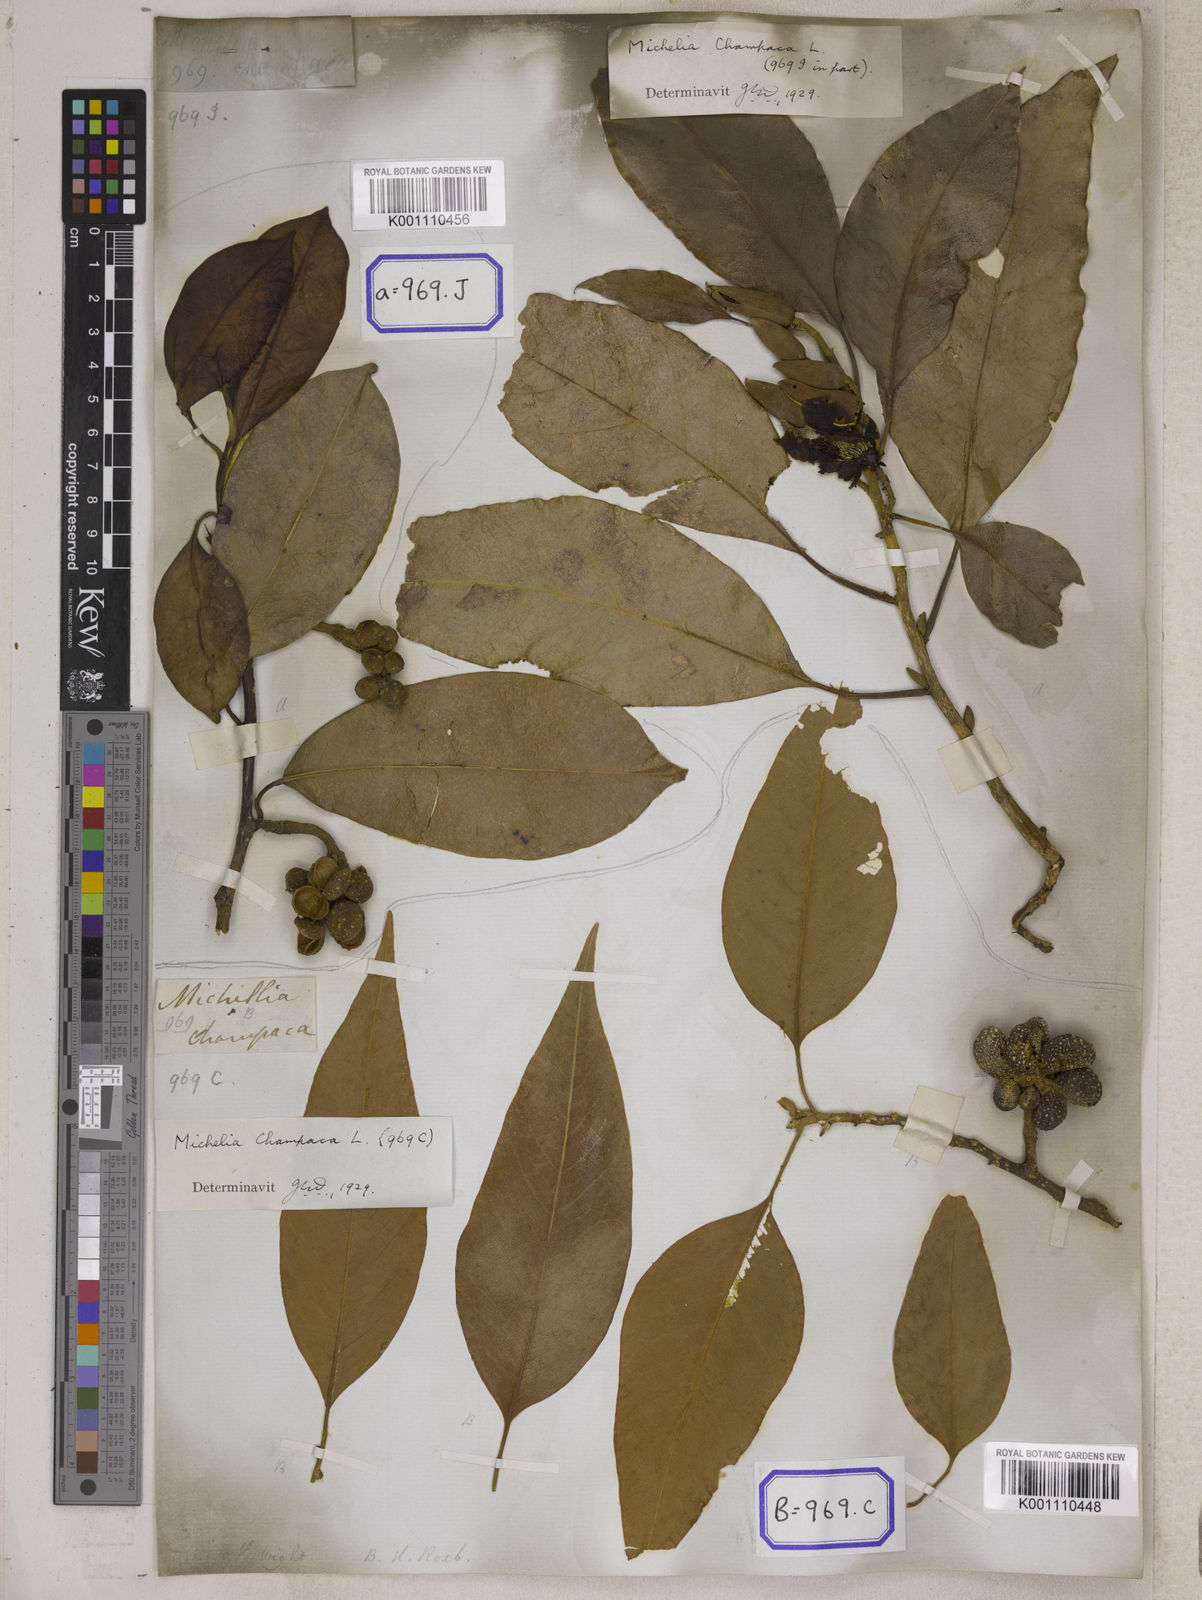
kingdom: Plantae
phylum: Tracheophyta
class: Magnoliopsida
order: Magnoliales
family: Magnoliaceae
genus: Magnolia
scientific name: Magnolia champaca
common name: Champak
